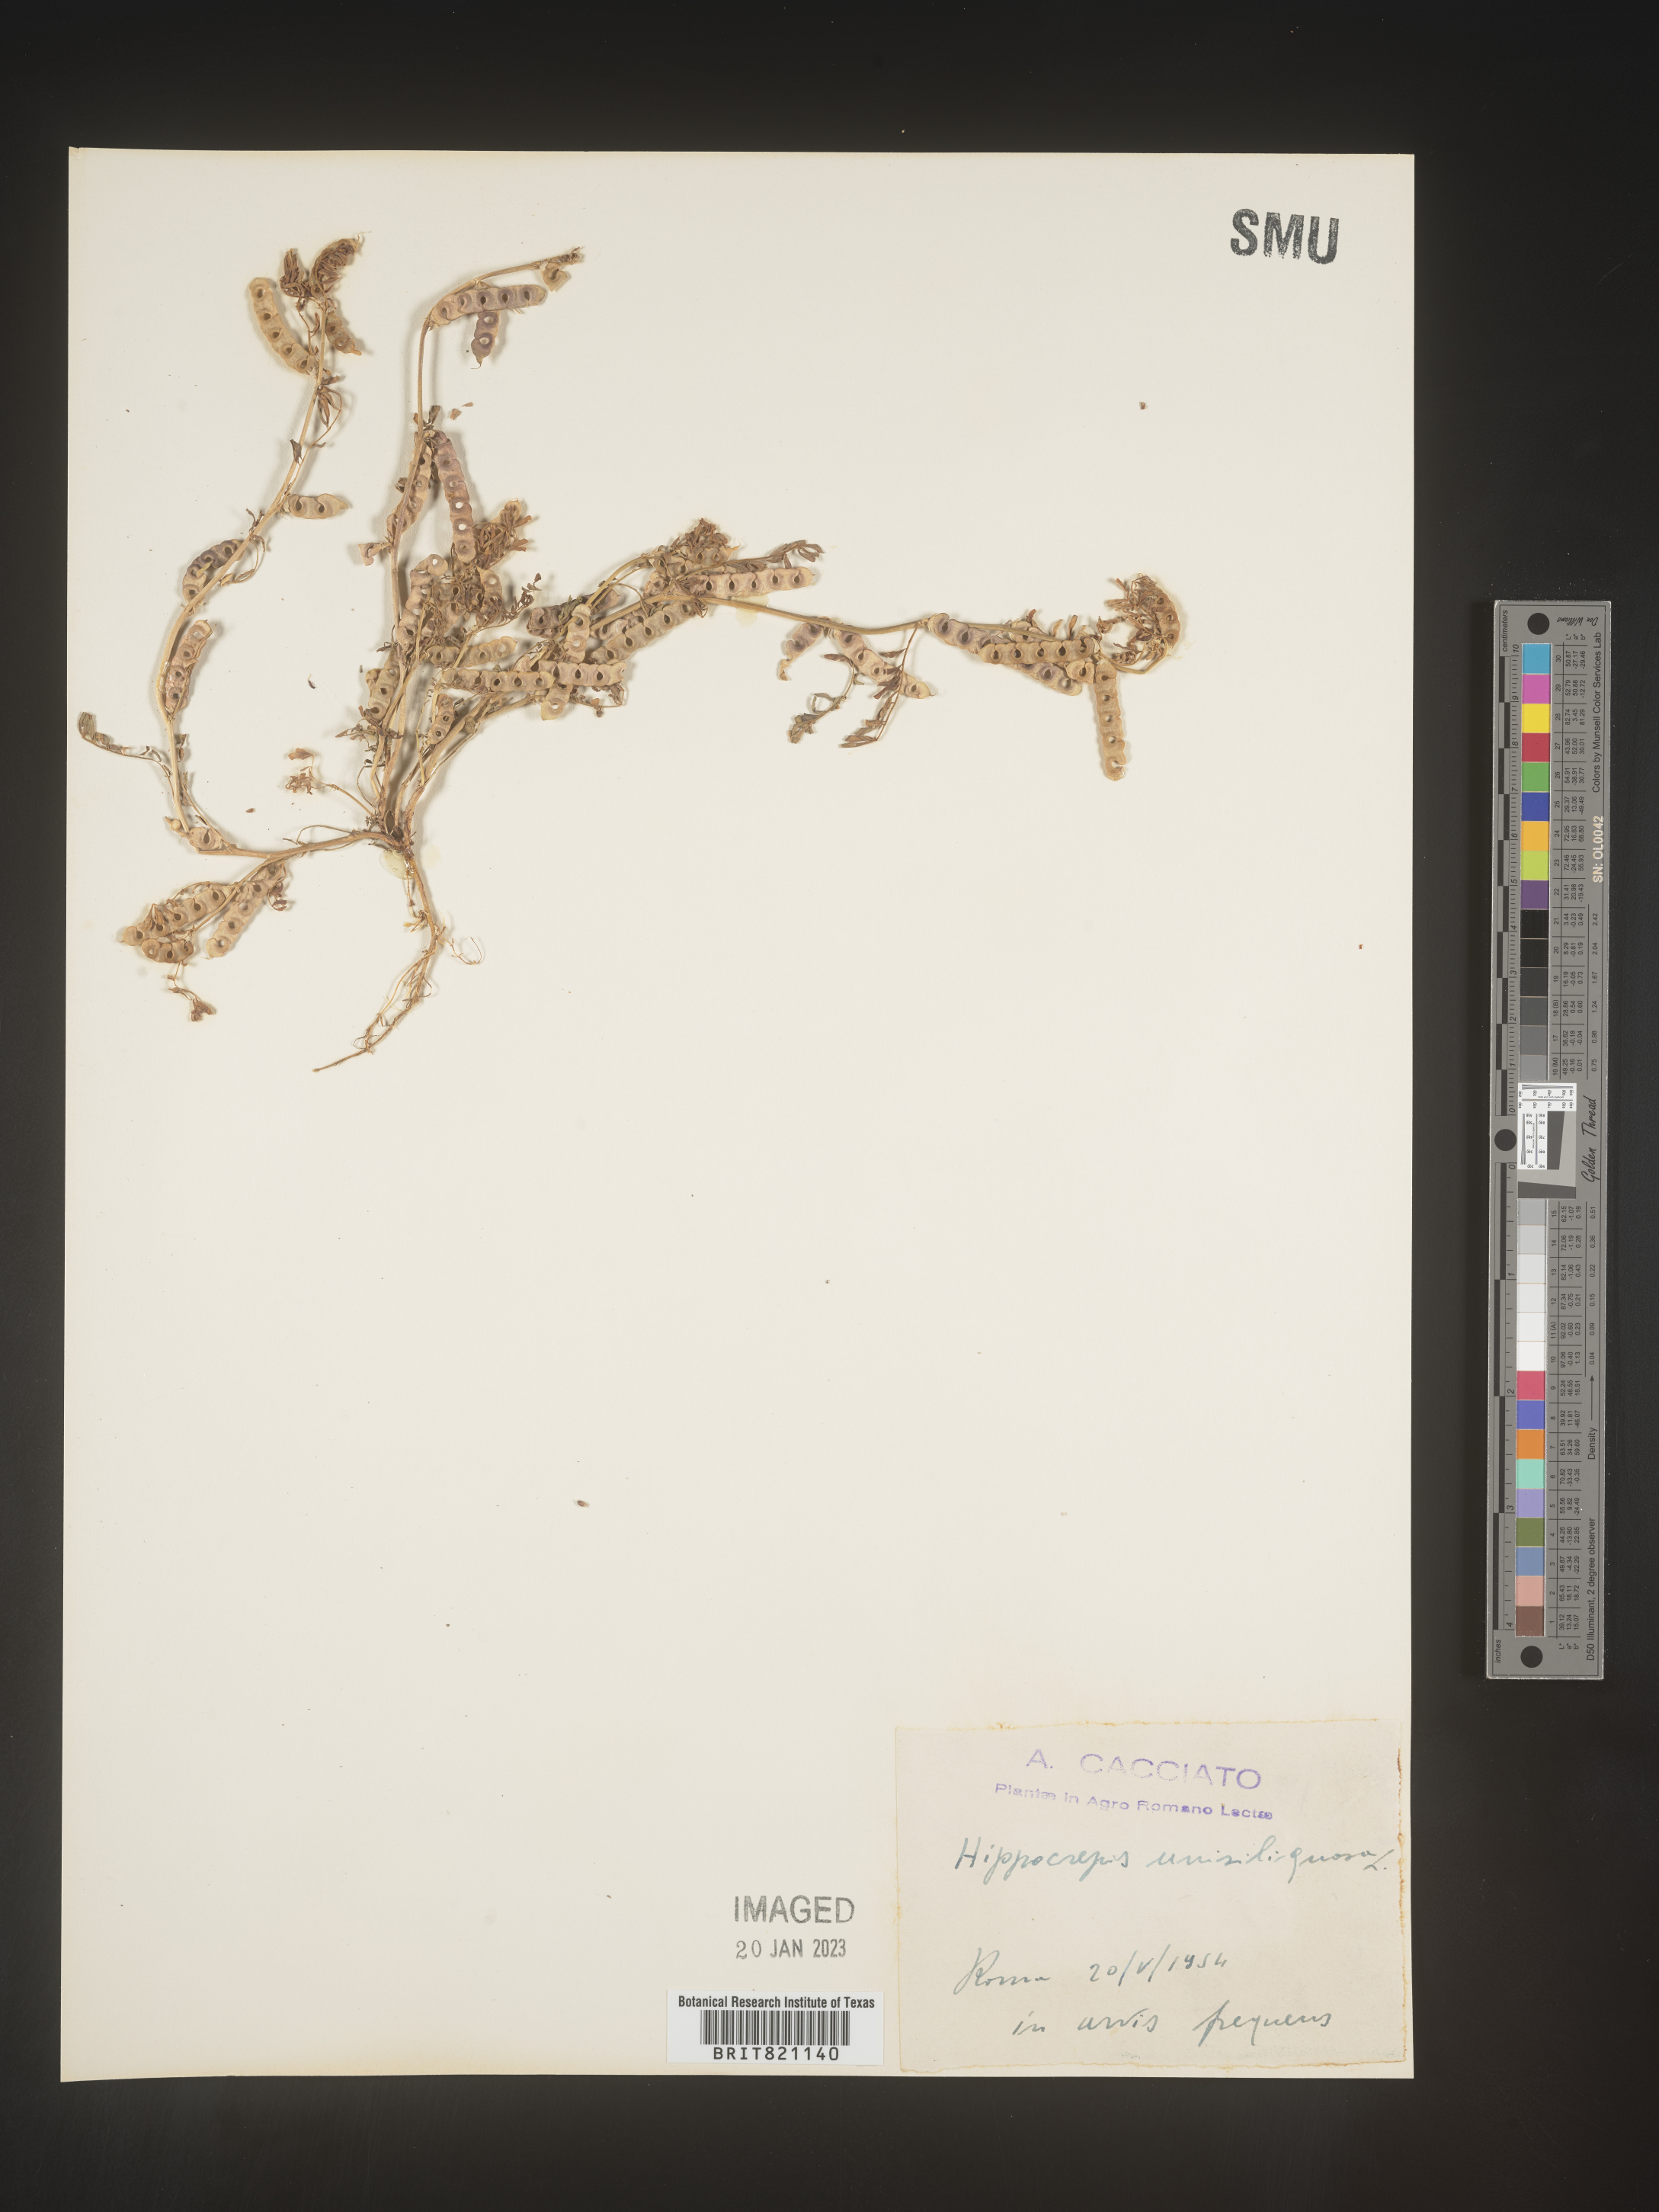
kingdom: Plantae
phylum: Tracheophyta
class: Magnoliopsida
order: Fabales
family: Fabaceae
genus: Hippocrepis
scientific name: Hippocrepis
